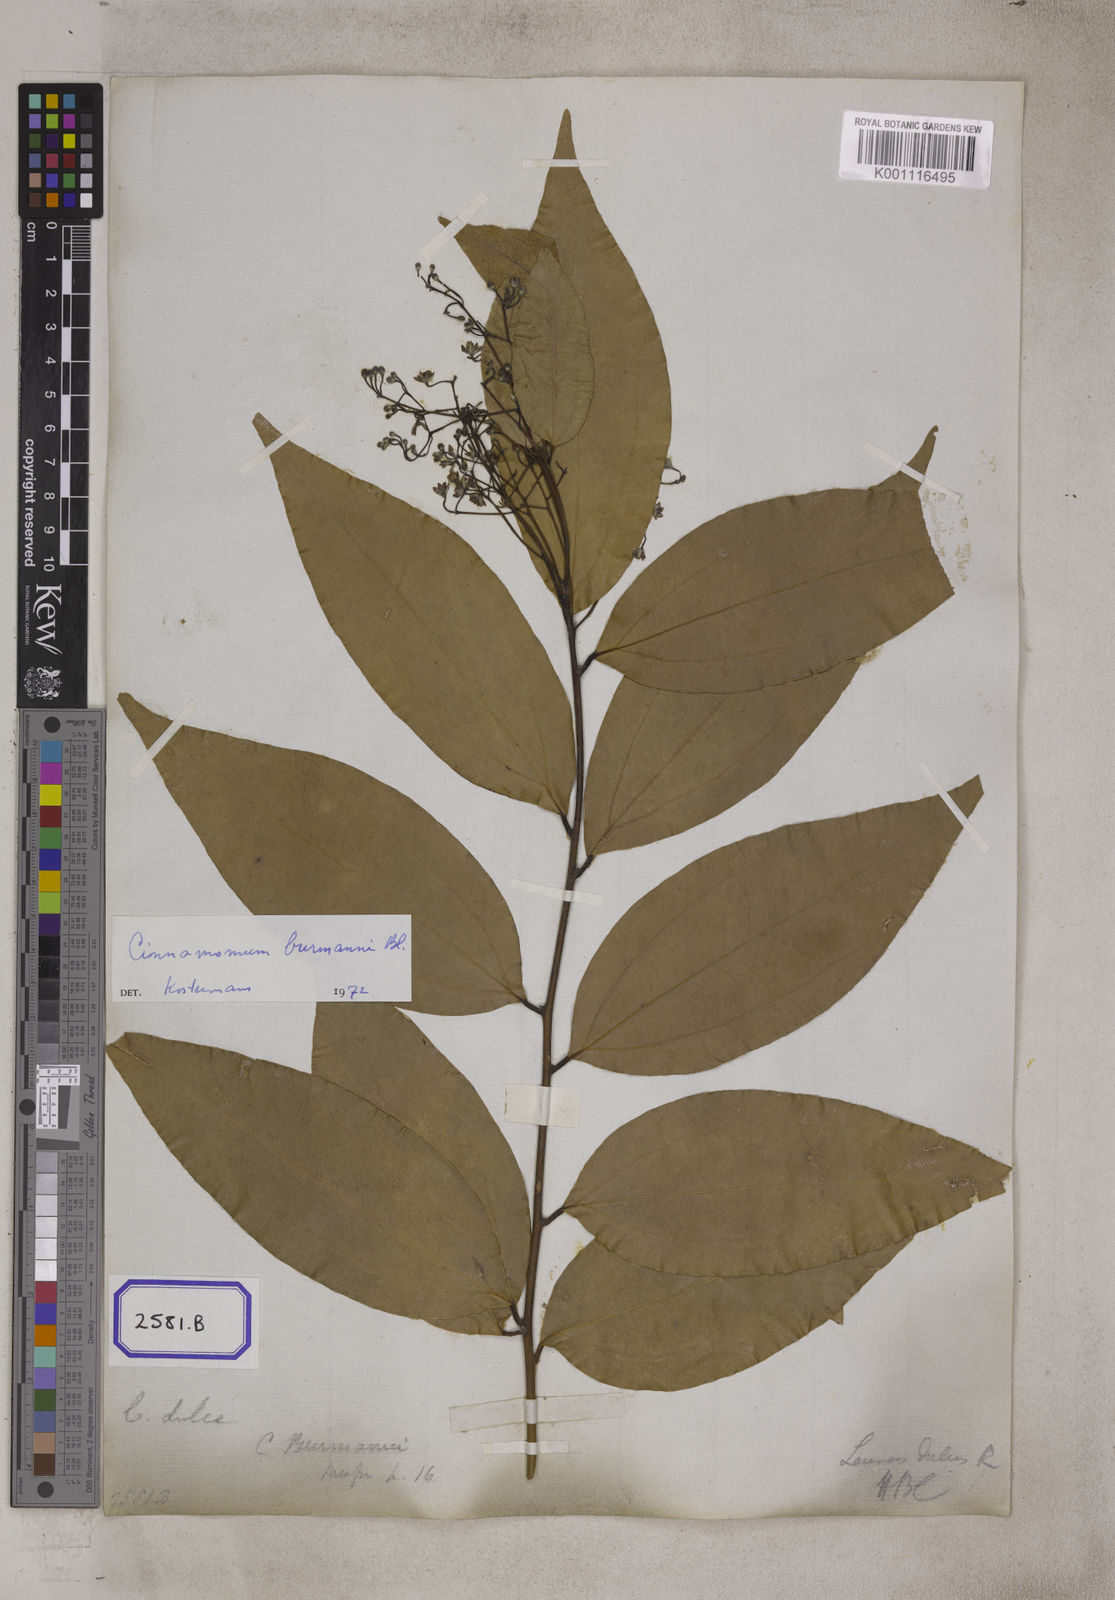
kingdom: Plantae
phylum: Tracheophyta
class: Magnoliopsida
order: Laurales
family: Lauraceae
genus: Cinnamomum
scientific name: Cinnamomum dubium
